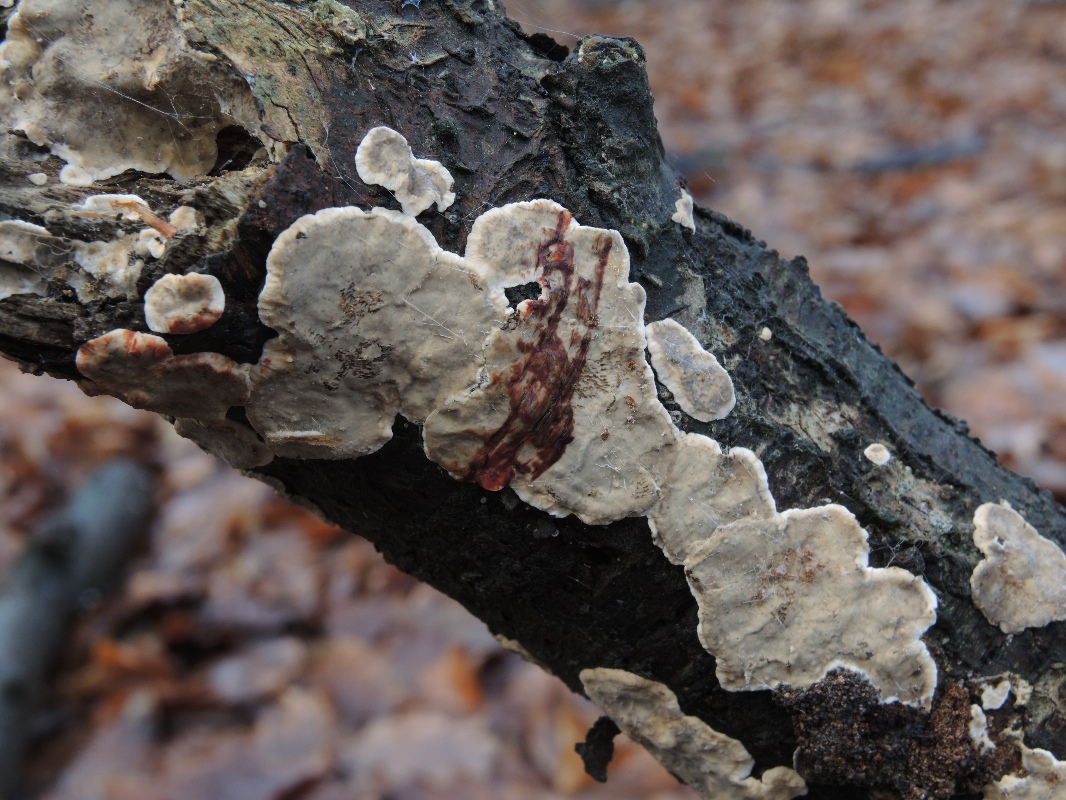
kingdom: Fungi
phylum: Basidiomycota
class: Agaricomycetes
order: Russulales
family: Stereaceae
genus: Stereum
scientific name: Stereum rugosum
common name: rynket lædersvamp
